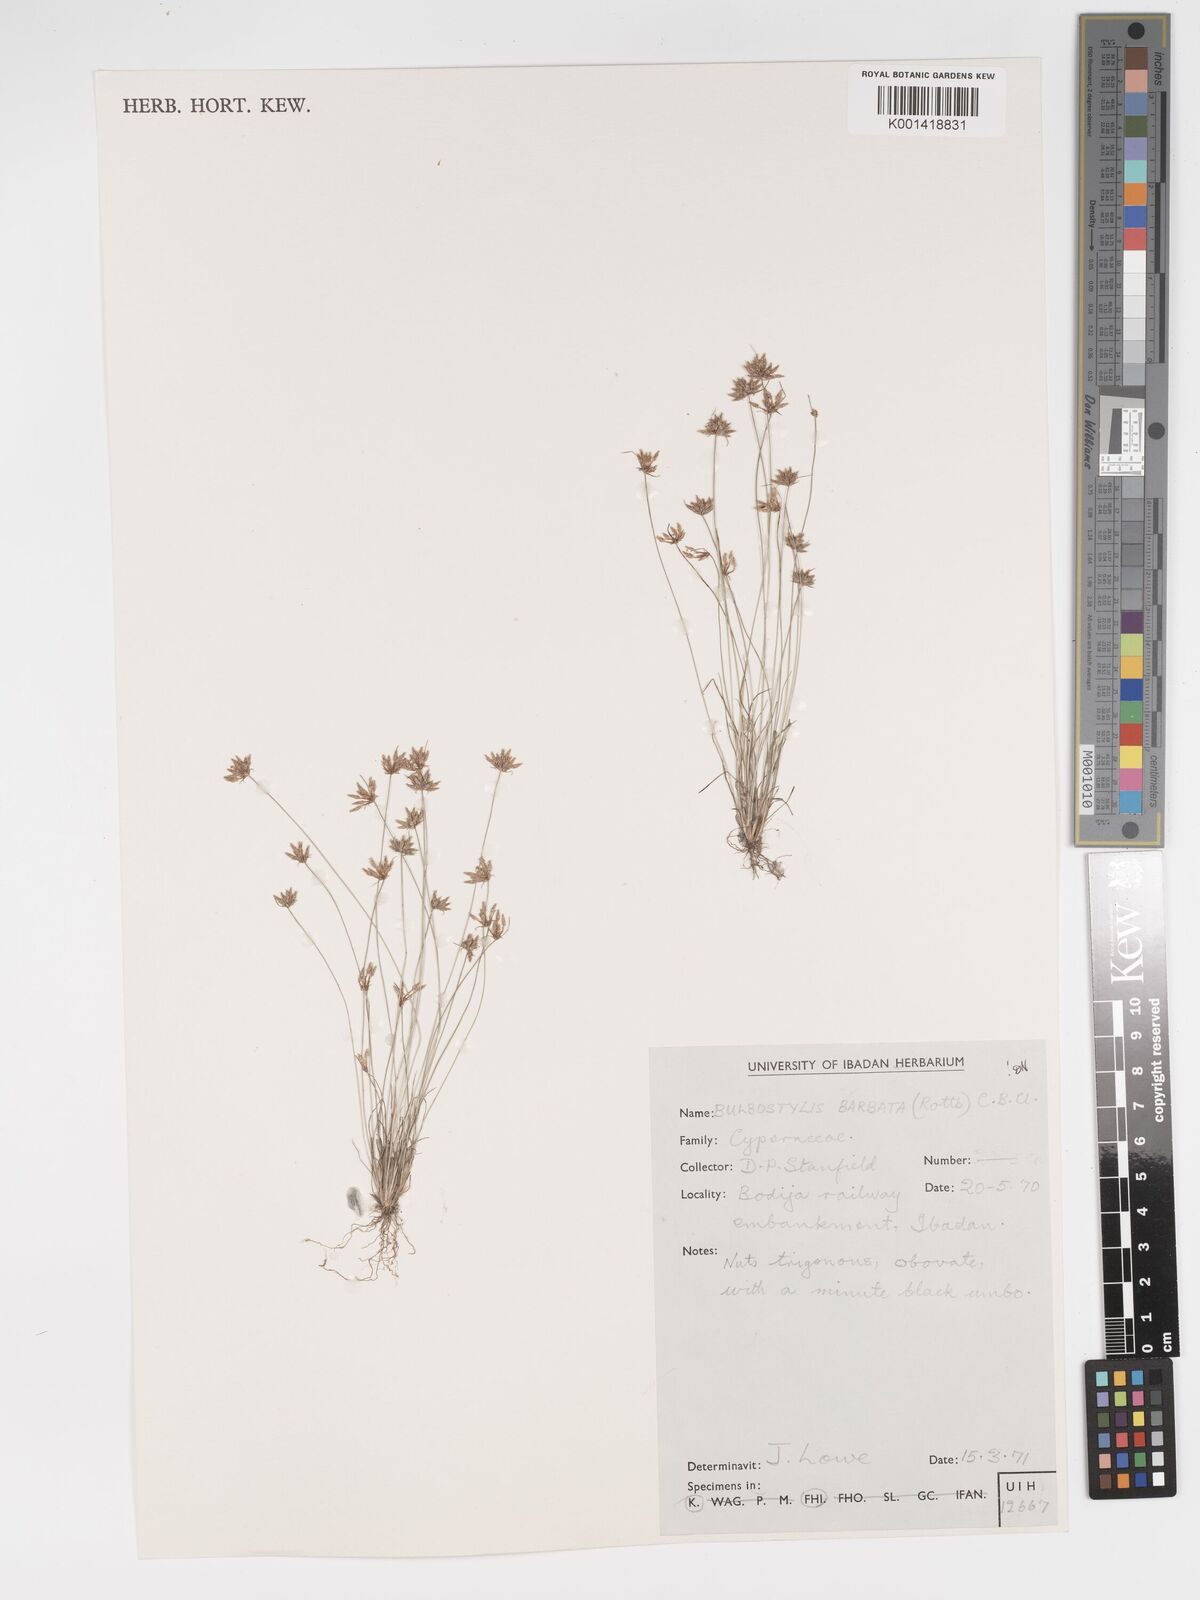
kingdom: Plantae
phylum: Tracheophyta
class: Liliopsida
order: Poales
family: Cyperaceae
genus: Bulbostylis
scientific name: Bulbostylis barbata
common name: Watergrass
